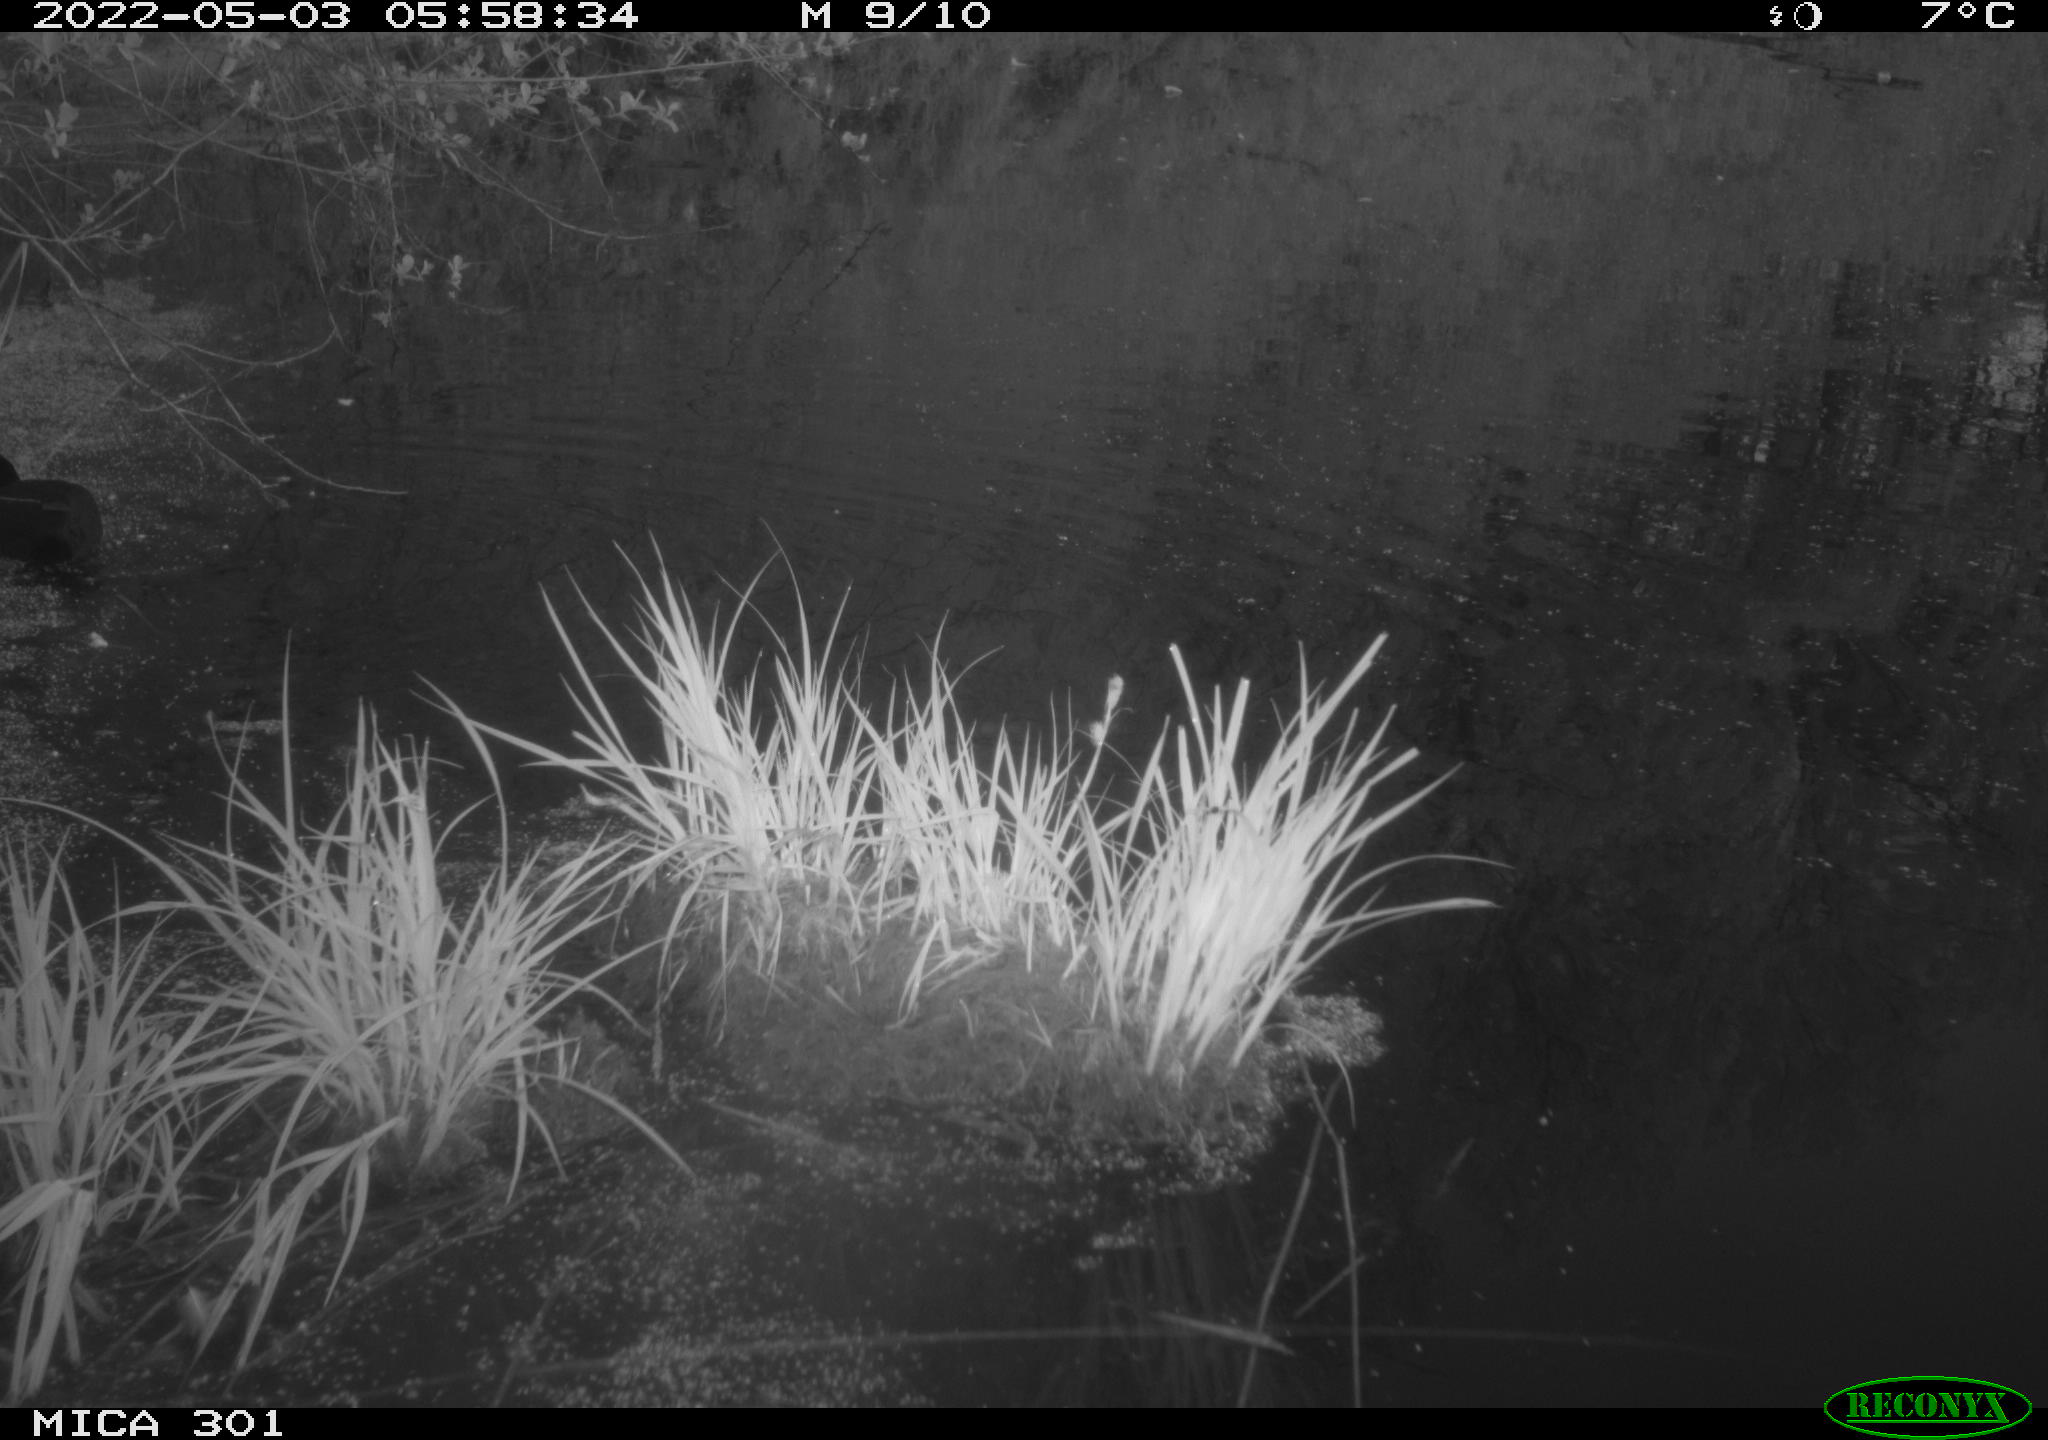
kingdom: Animalia
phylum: Chordata
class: Aves
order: Gruiformes
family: Rallidae
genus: Fulica
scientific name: Fulica atra
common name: Eurasian coot
